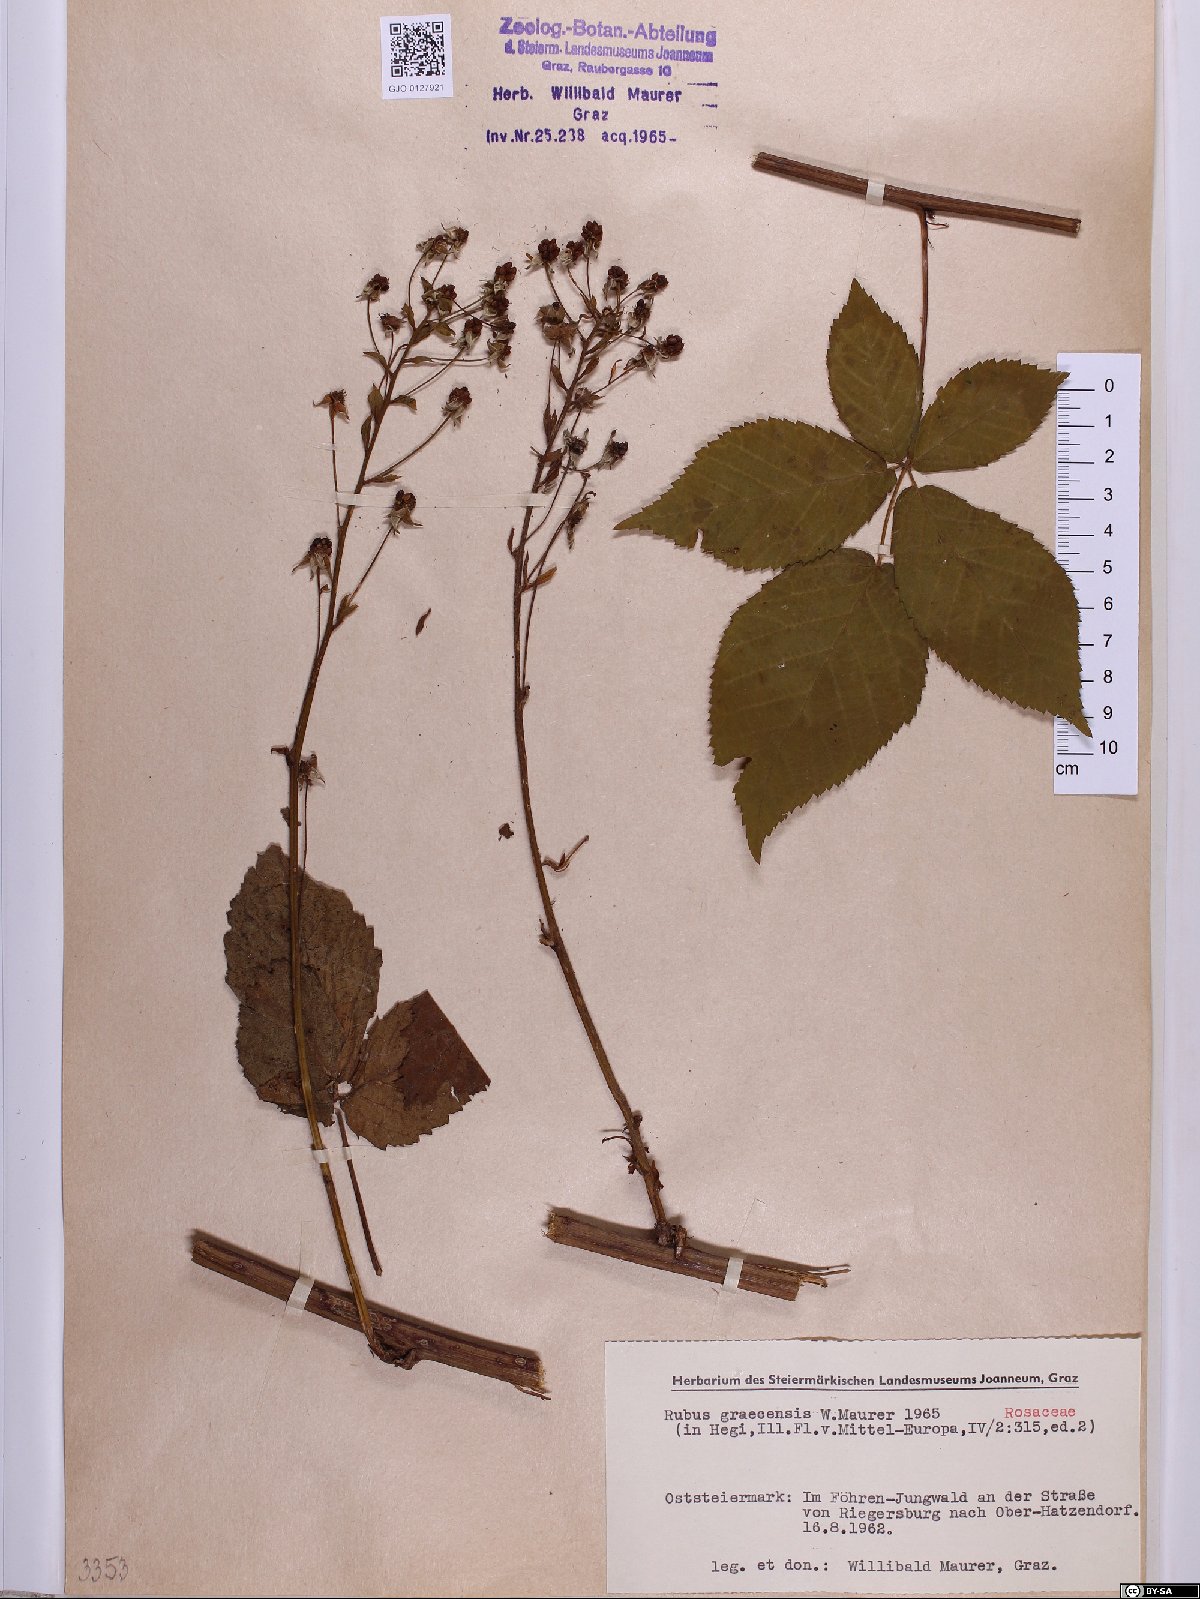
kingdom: Plantae
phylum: Tracheophyta
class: Magnoliopsida
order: Rosales
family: Rosaceae
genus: Rubus
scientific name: Rubus graecensis
